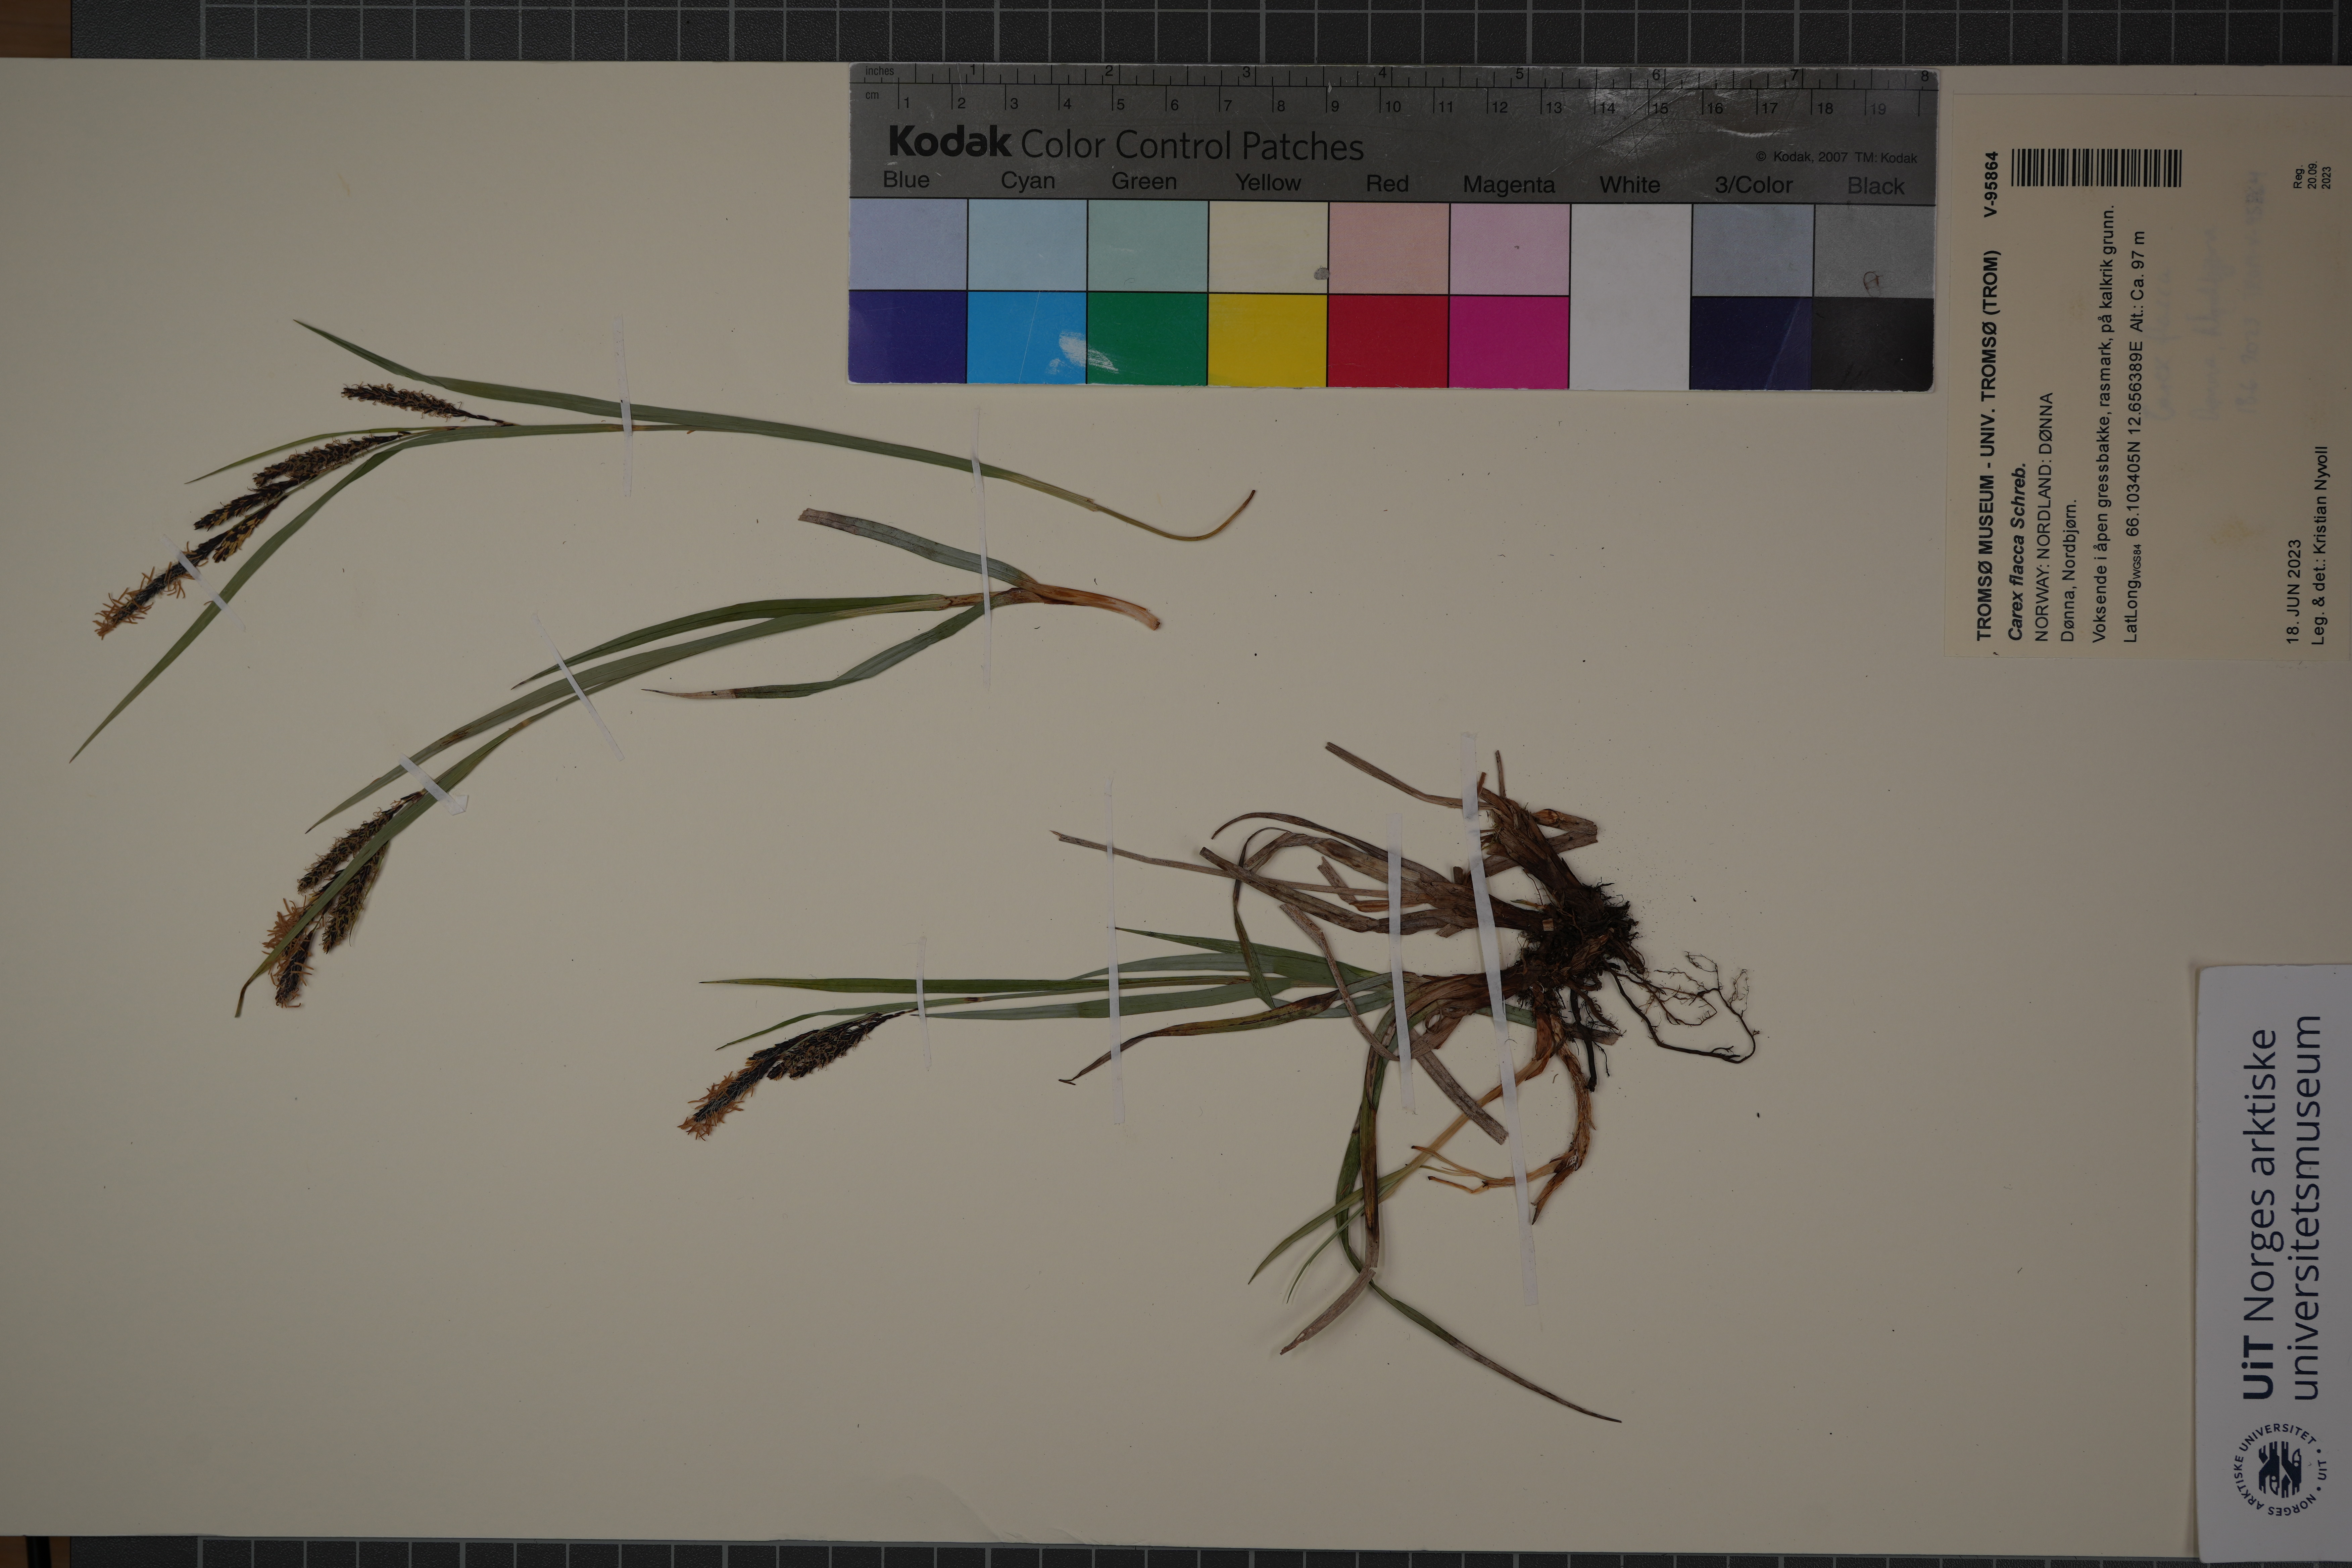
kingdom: Plantae
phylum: Tracheophyta
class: Liliopsida
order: Poales
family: Cyperaceae
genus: Carex
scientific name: Carex flacca
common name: Glaucous sedge
